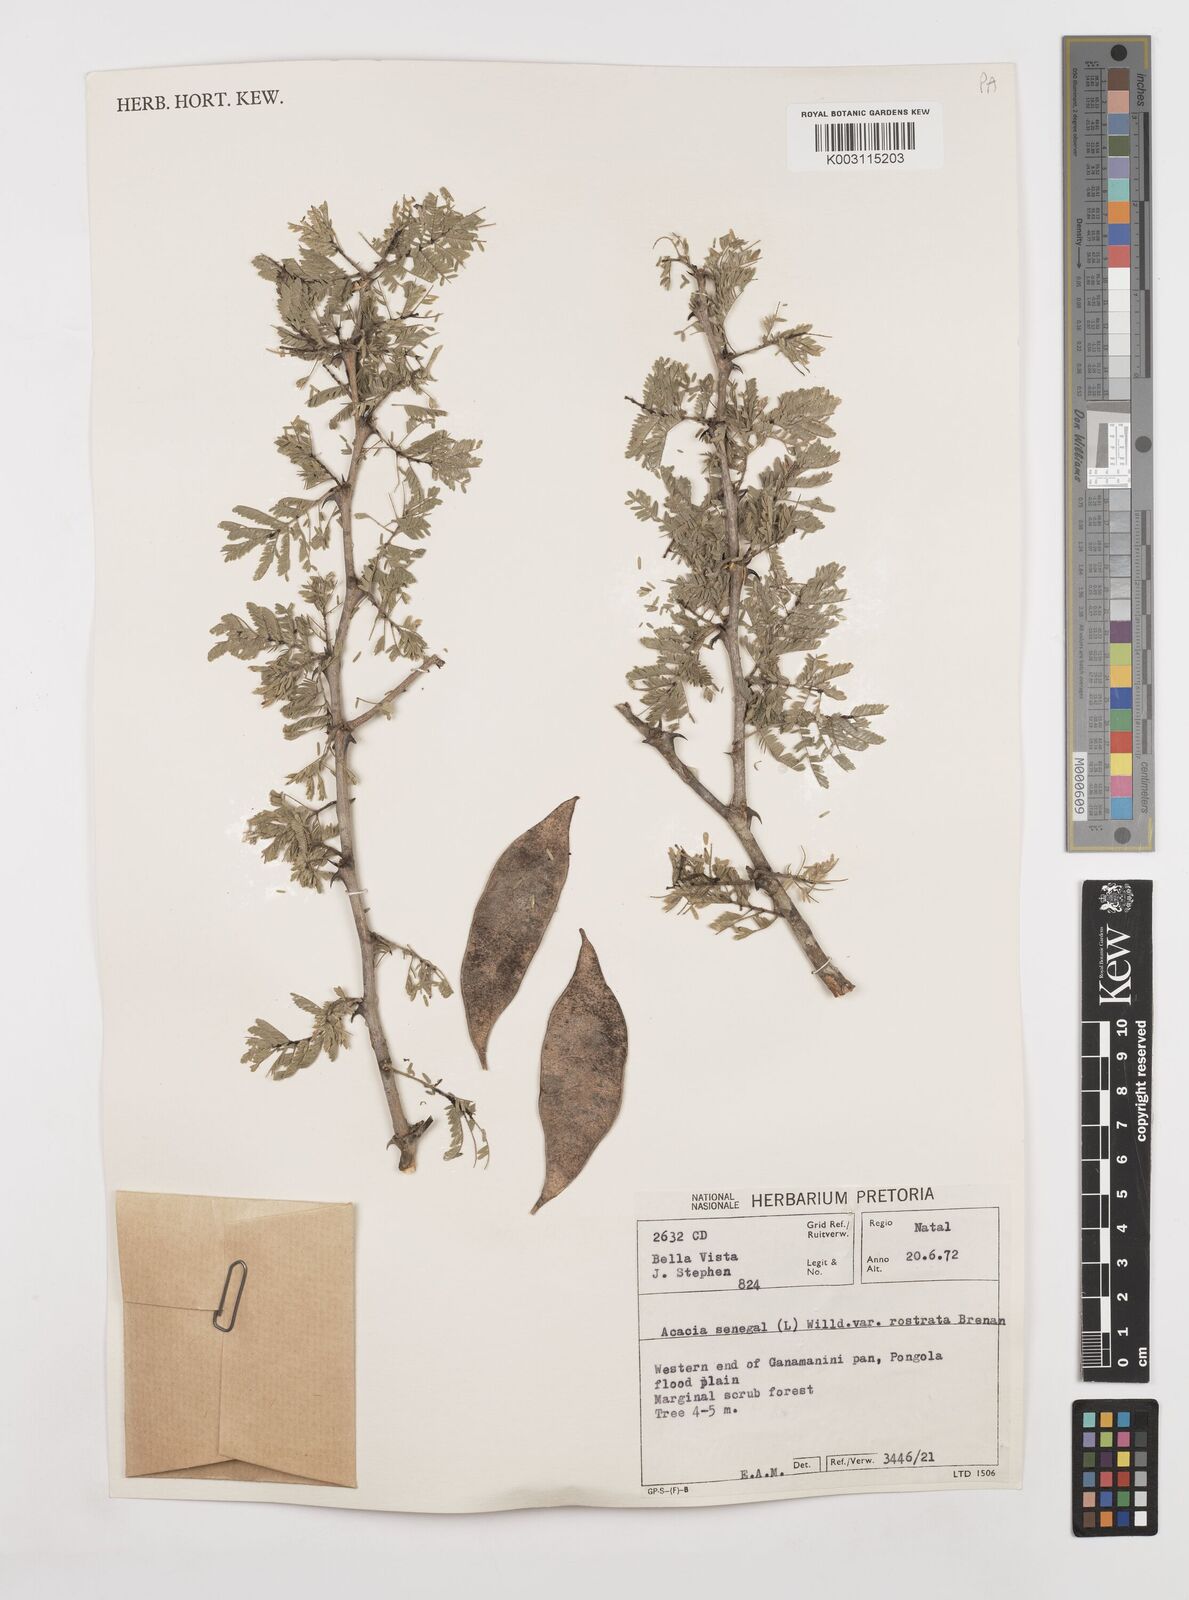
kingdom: Plantae
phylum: Tracheophyta
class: Magnoliopsida
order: Fabales
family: Fabaceae
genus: Senegalia
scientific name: Senegalia senegal
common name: Senegal-gum
